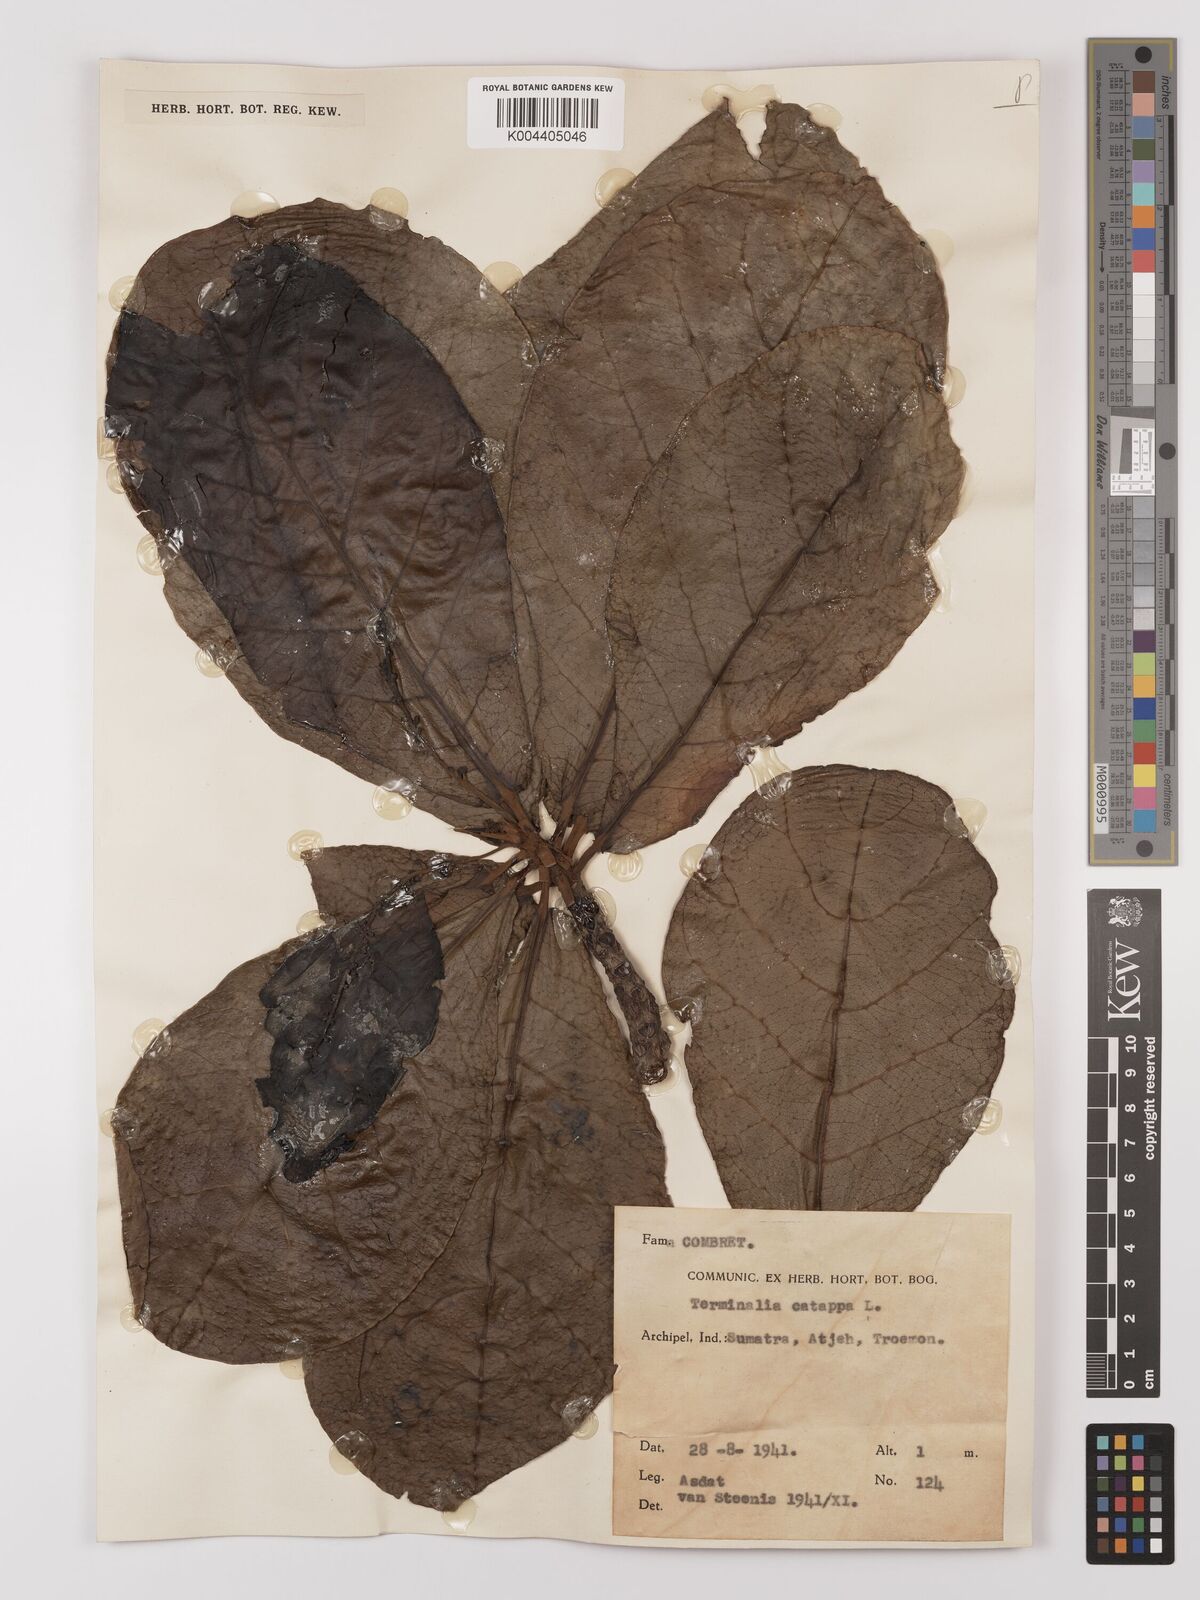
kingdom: Plantae
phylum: Tracheophyta
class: Magnoliopsida
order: Myrtales
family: Combretaceae
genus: Terminalia
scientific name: Terminalia catappa
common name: Tropical almond
